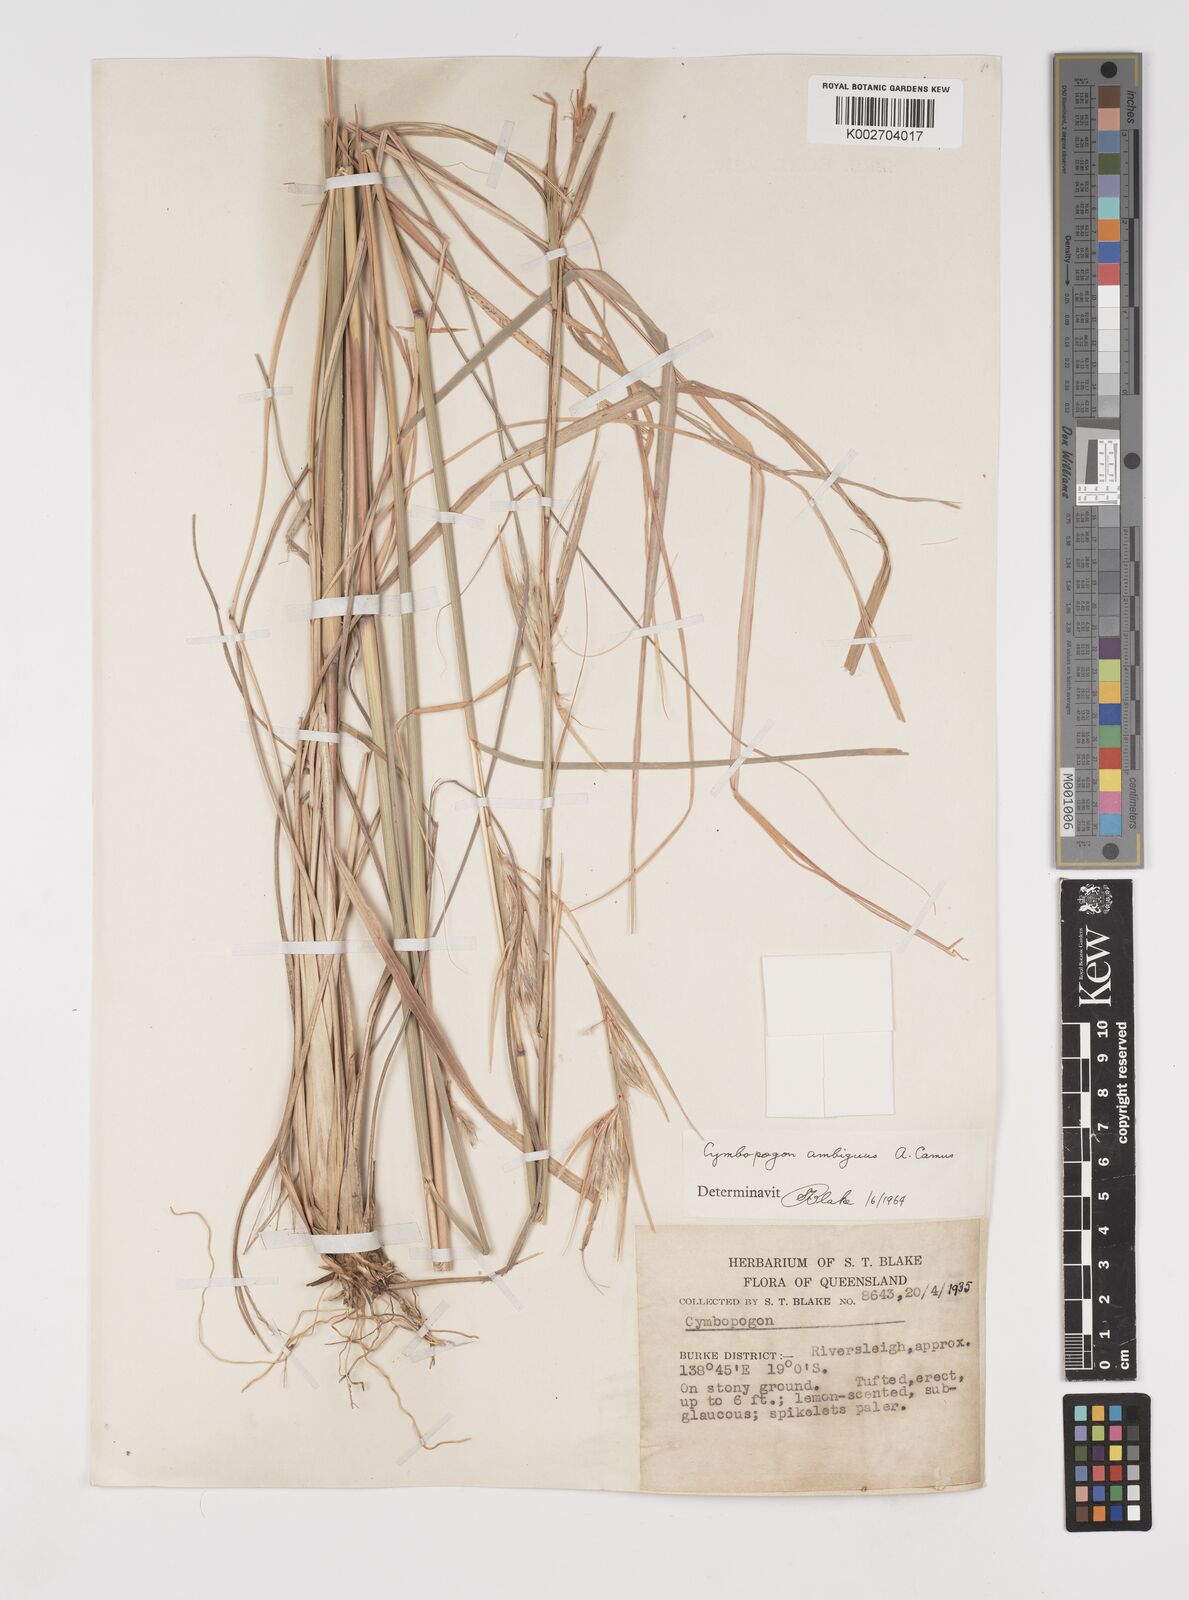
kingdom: Plantae
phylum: Tracheophyta
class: Liliopsida
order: Poales
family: Poaceae
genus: Cymbopogon
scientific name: Cymbopogon ambiguus
